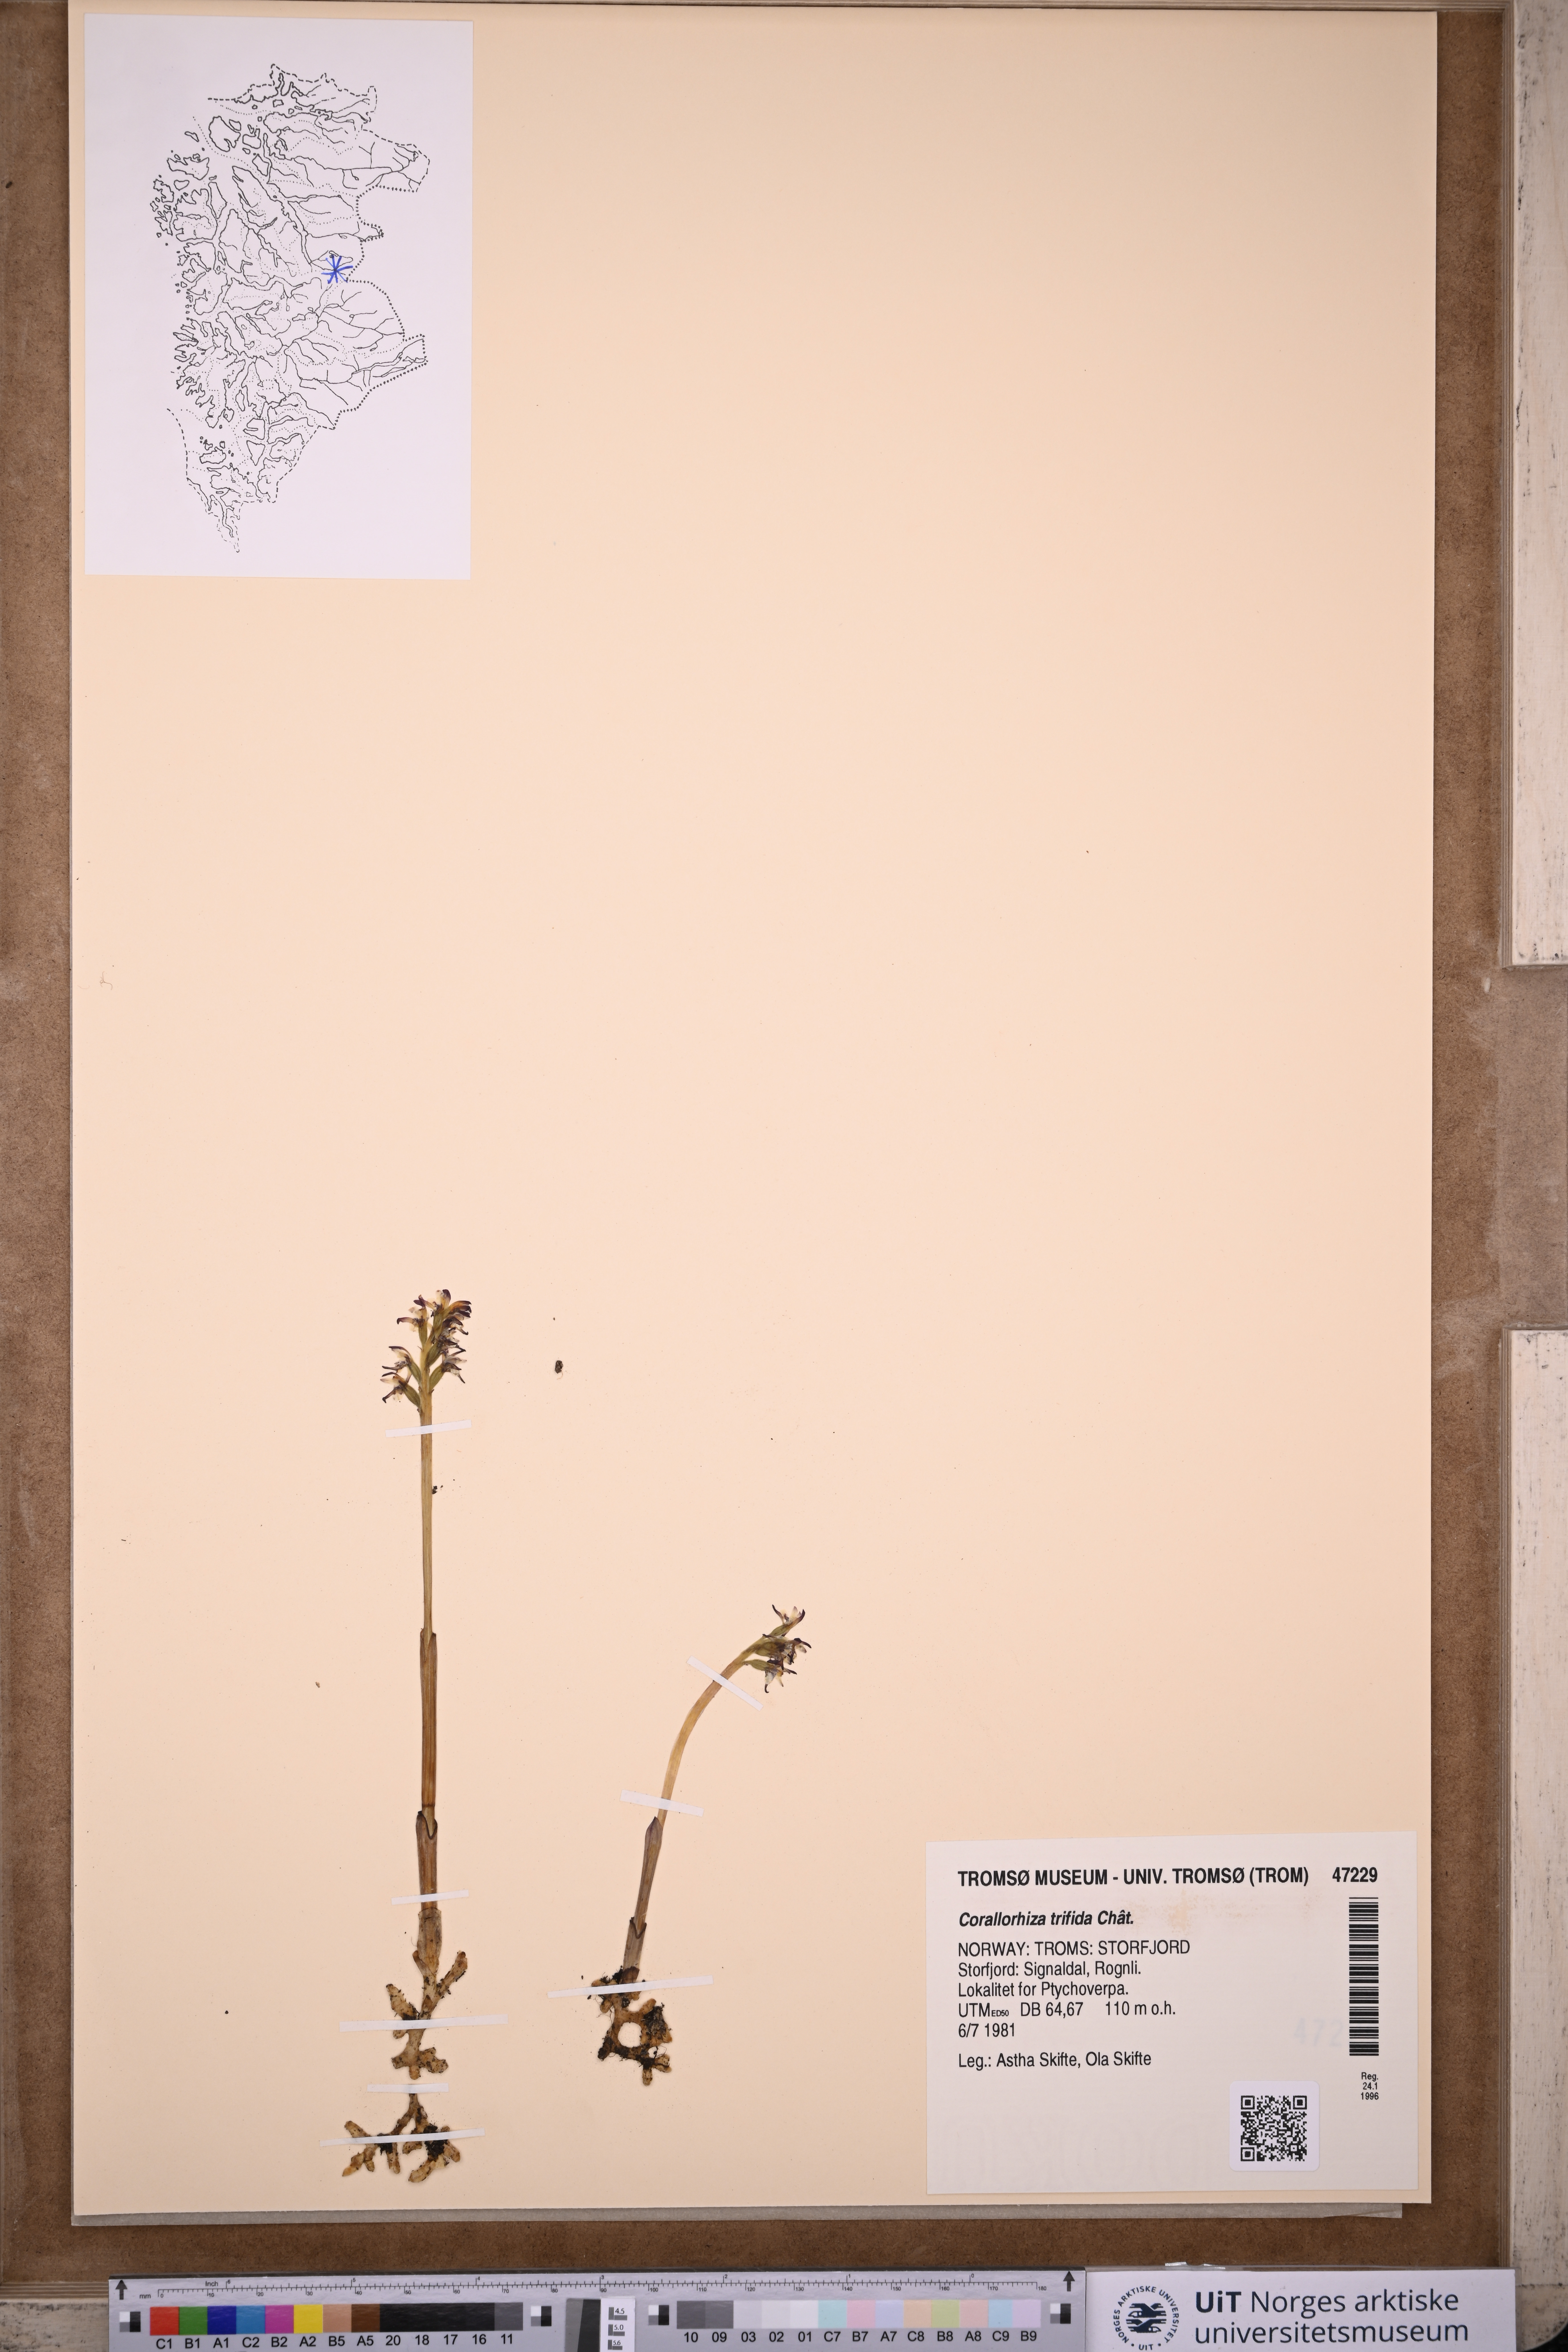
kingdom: Plantae
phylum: Tracheophyta
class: Liliopsida
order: Asparagales
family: Orchidaceae
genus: Corallorhiza
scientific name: Corallorhiza trifida
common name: Yellow coralroot
